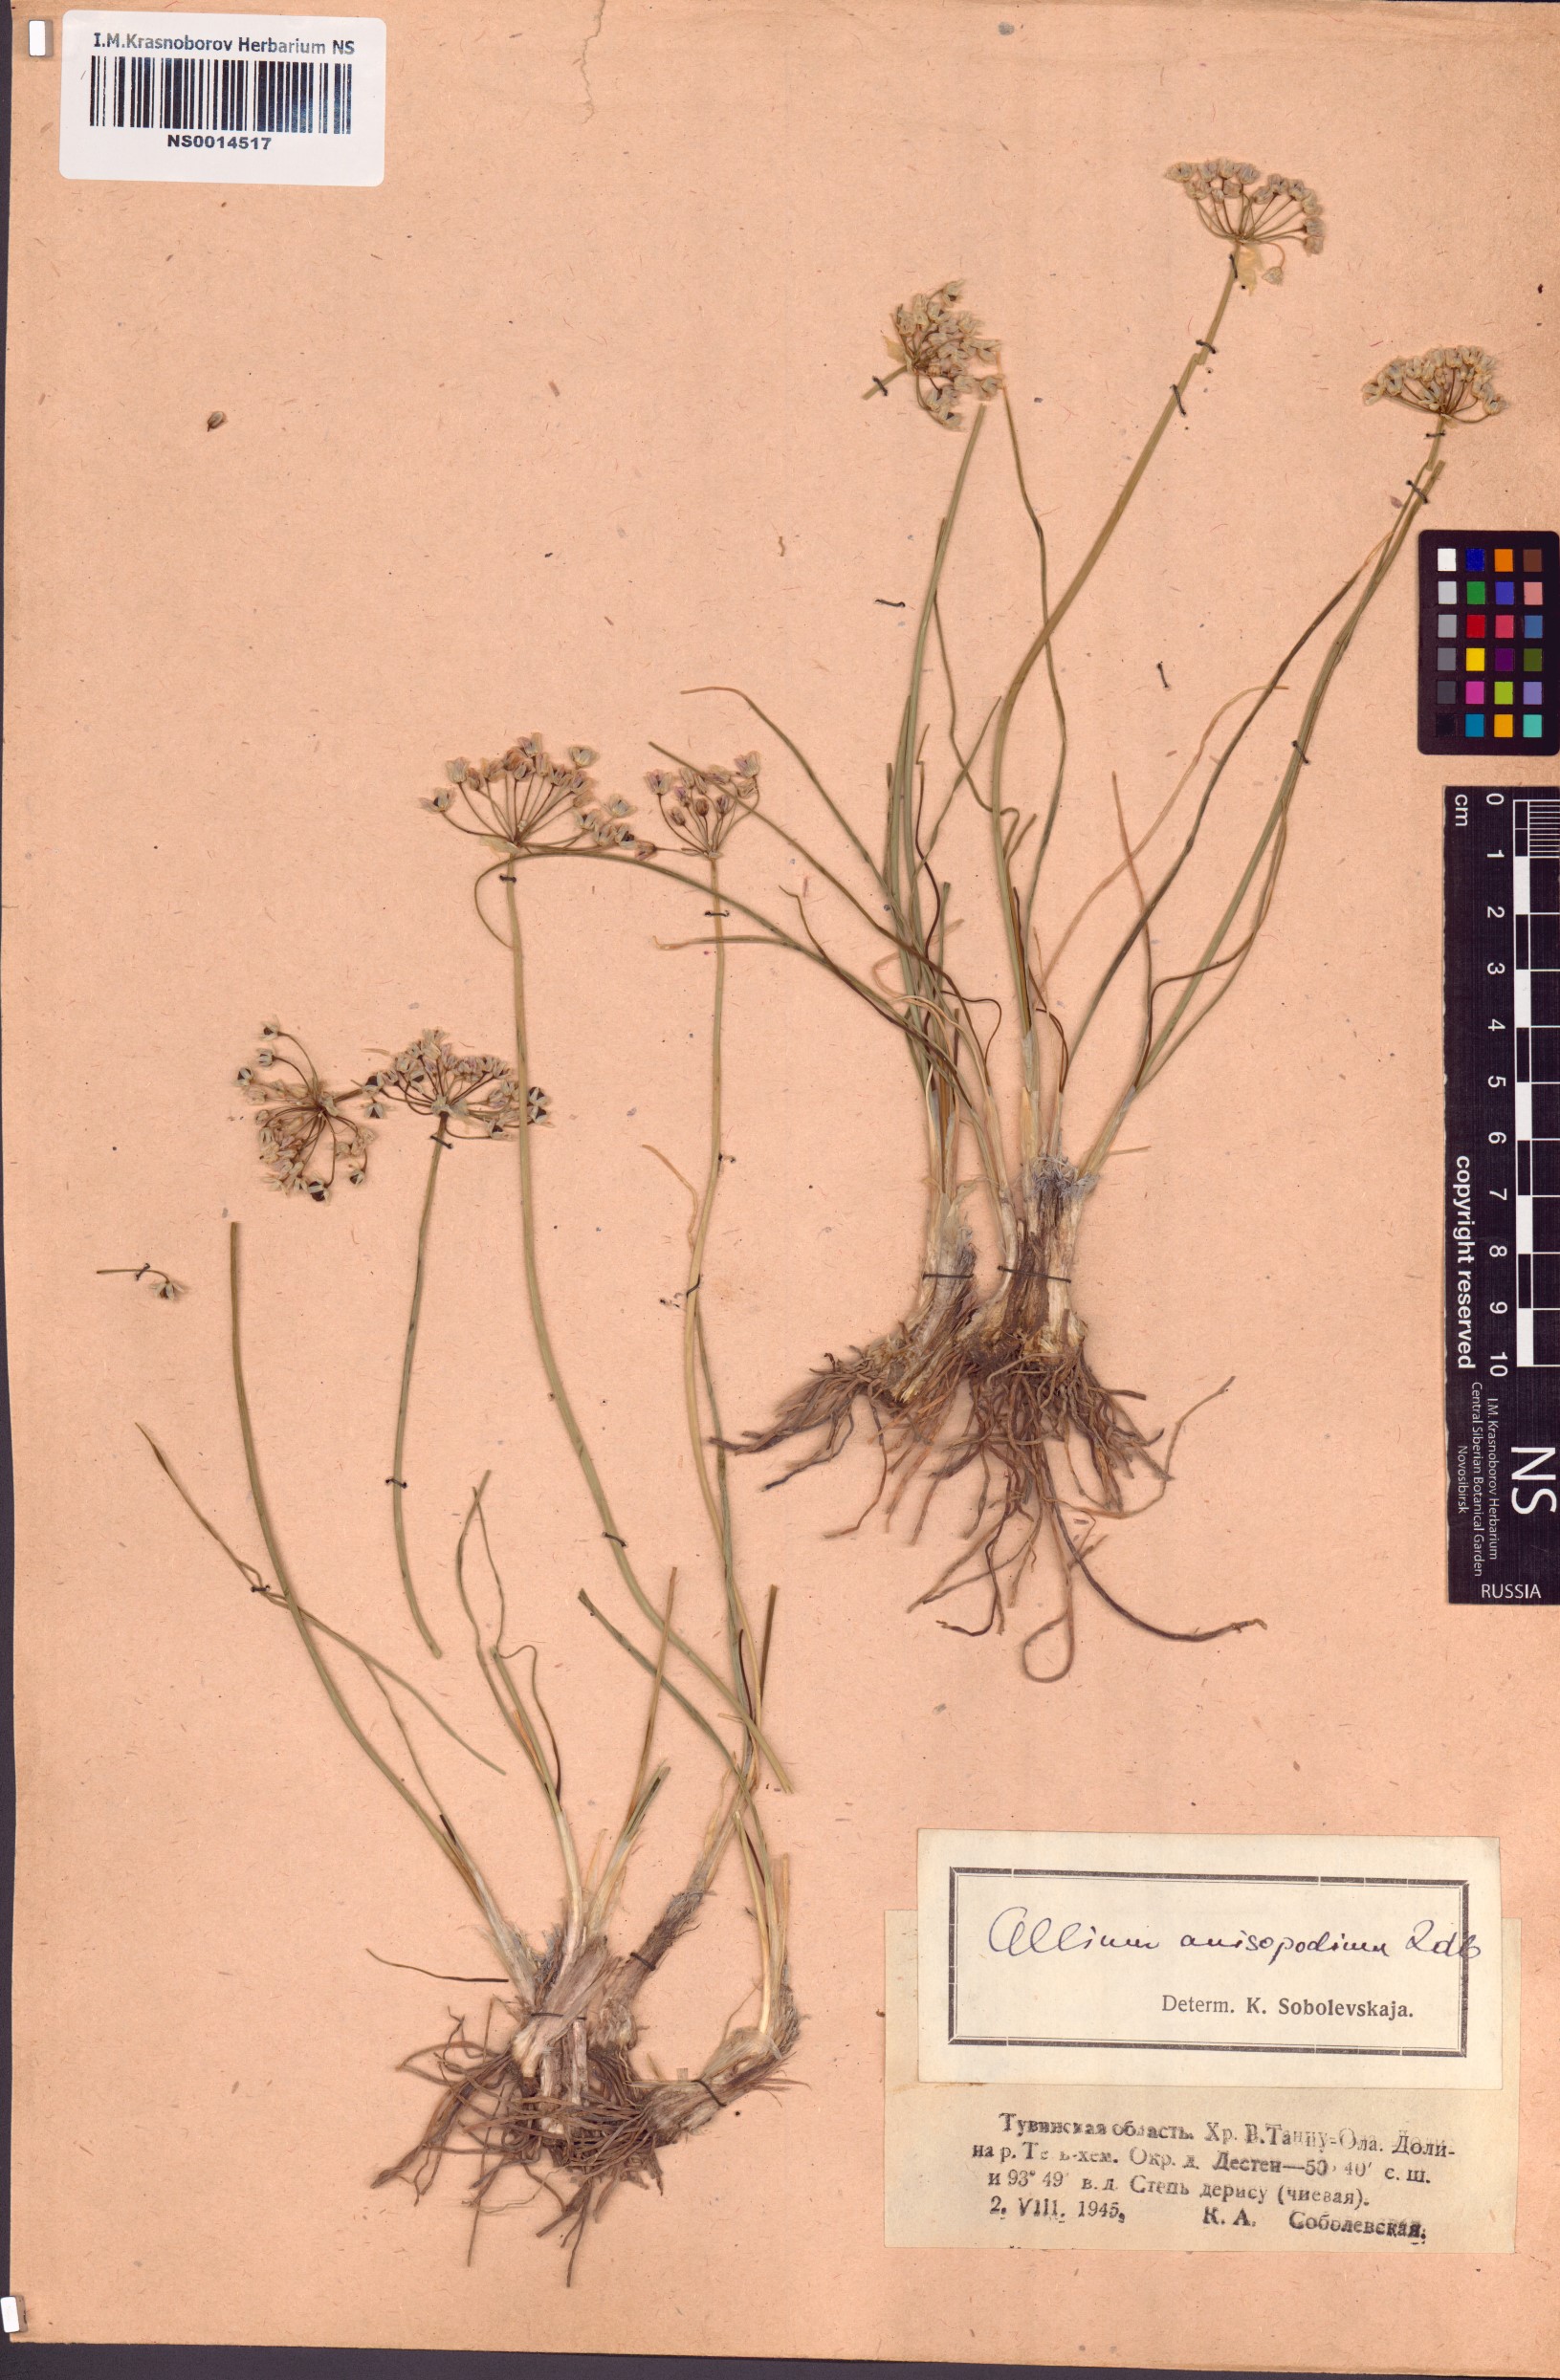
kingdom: Plantae
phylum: Tracheophyta
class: Liliopsida
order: Asparagales
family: Amaryllidaceae
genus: Allium
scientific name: Allium anisopodium
